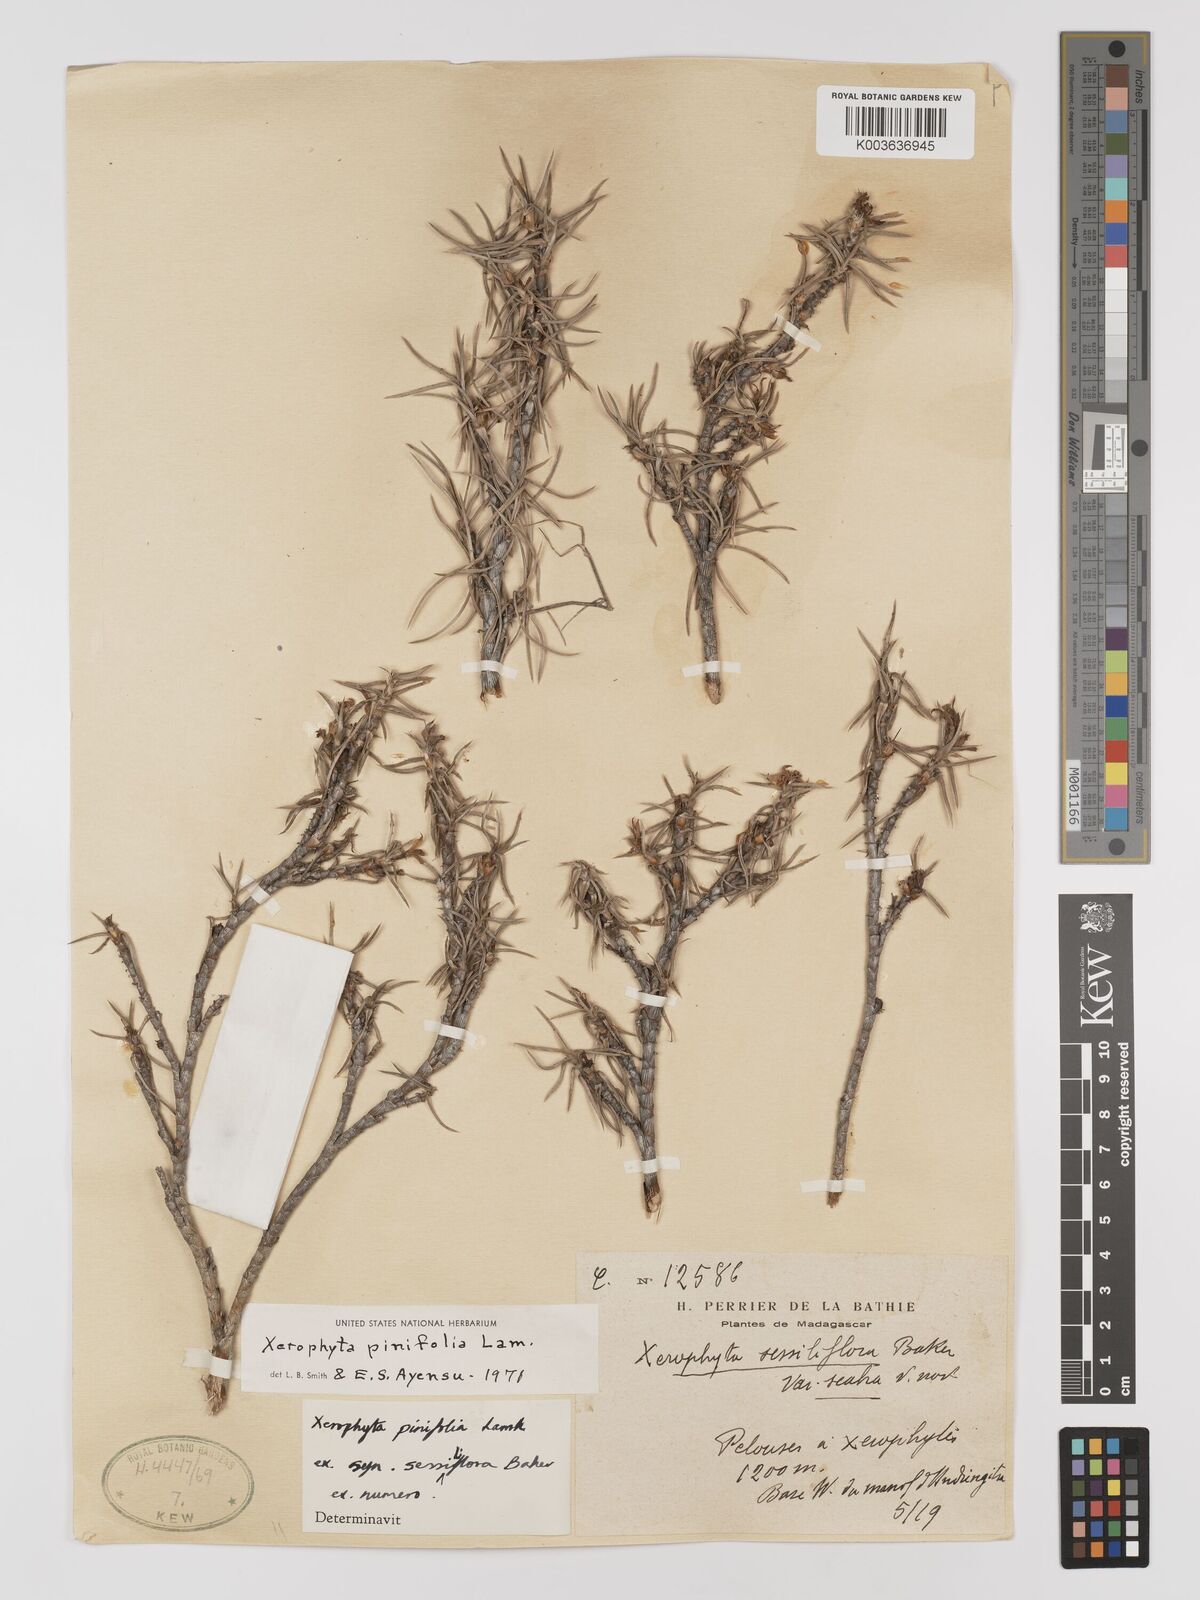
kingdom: Plantae
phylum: Tracheophyta
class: Liliopsida
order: Pandanales
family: Velloziaceae
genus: Xerophyta
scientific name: Xerophyta pinifolia
